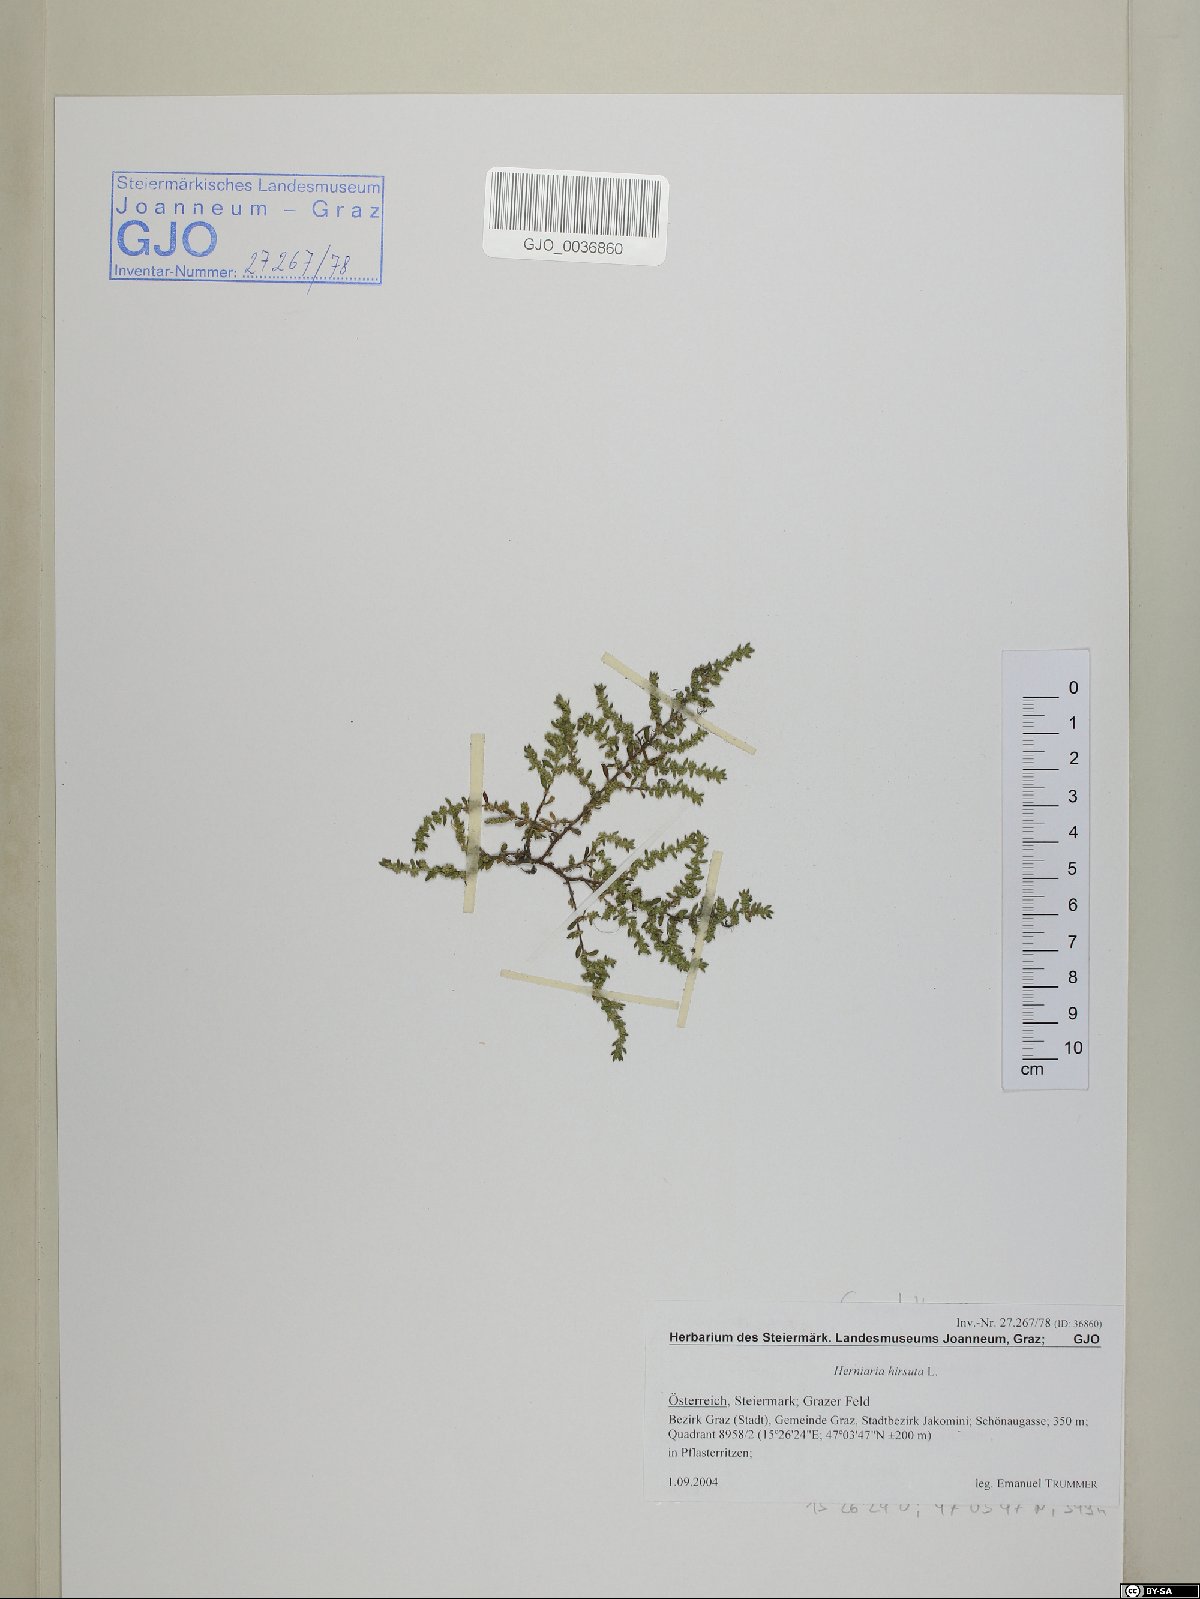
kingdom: Plantae
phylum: Tracheophyta
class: Magnoliopsida
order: Caryophyllales
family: Caryophyllaceae
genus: Herniaria
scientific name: Herniaria hirsuta
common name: Hairy rupturewort
